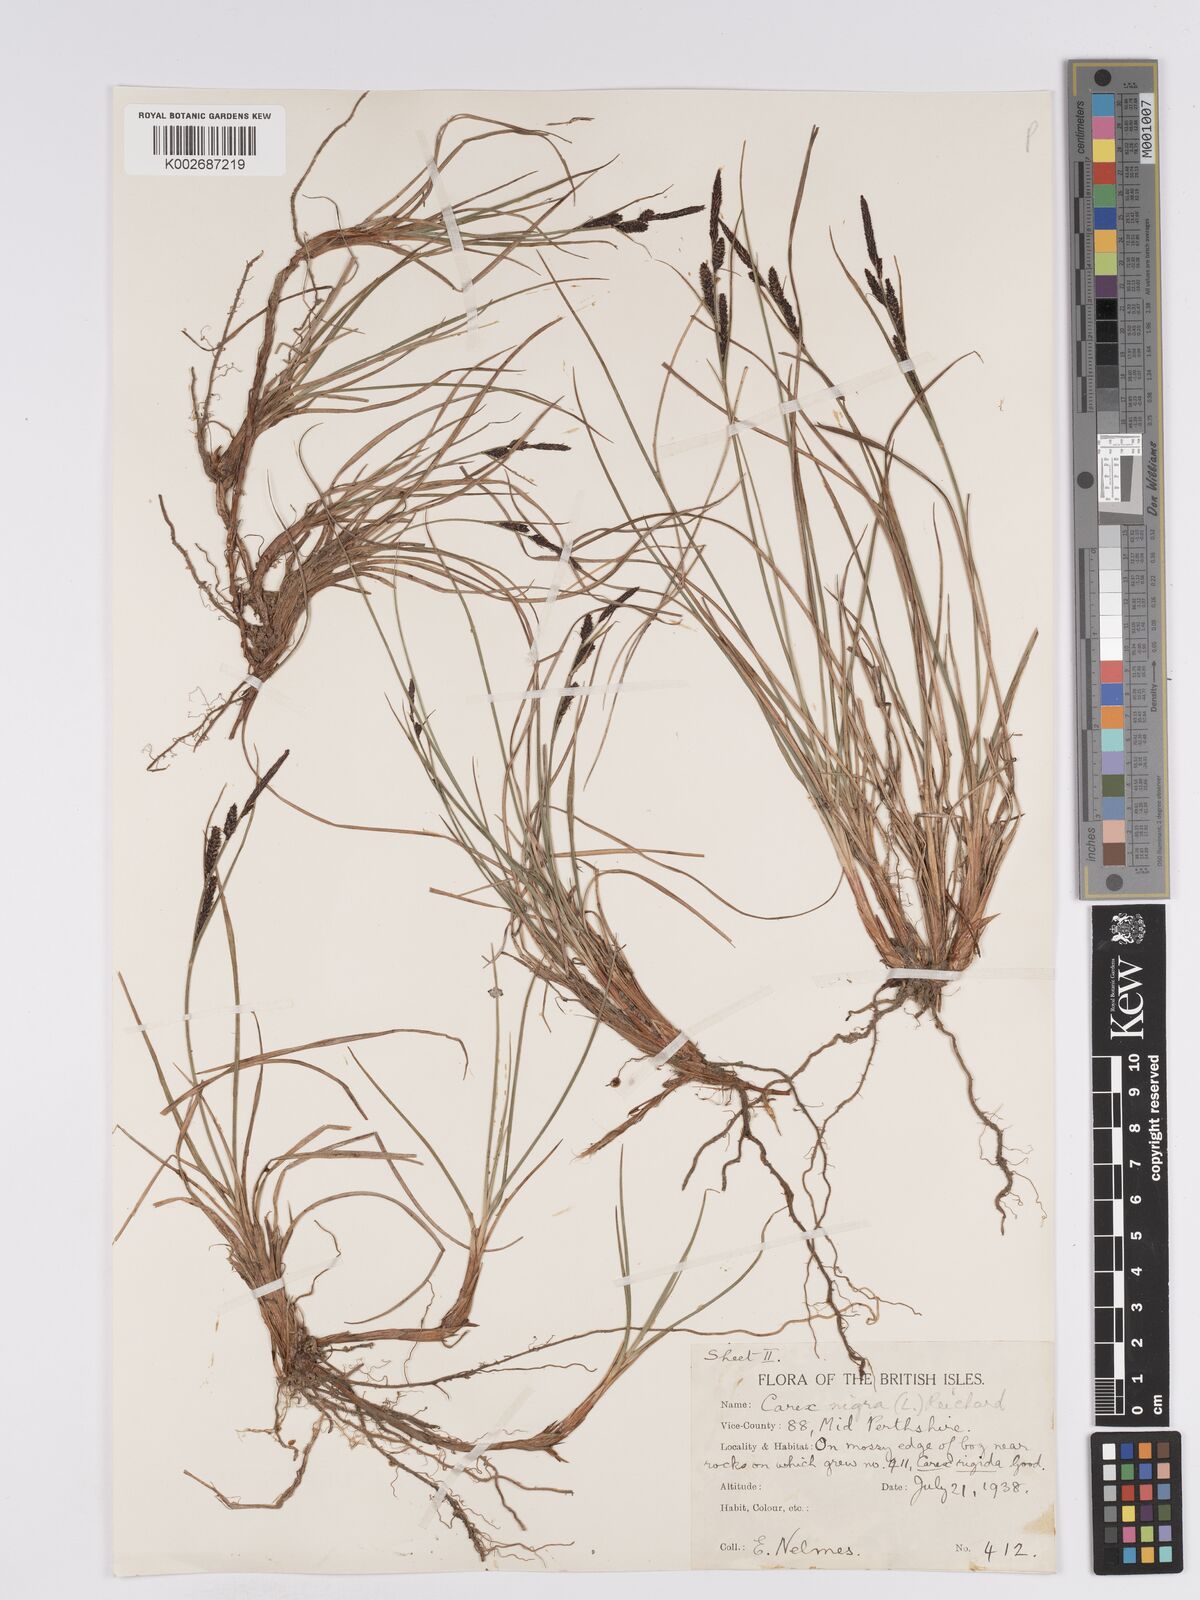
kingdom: Plantae
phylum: Tracheophyta
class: Liliopsida
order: Poales
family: Cyperaceae
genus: Carex
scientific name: Carex nigra
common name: Common sedge
